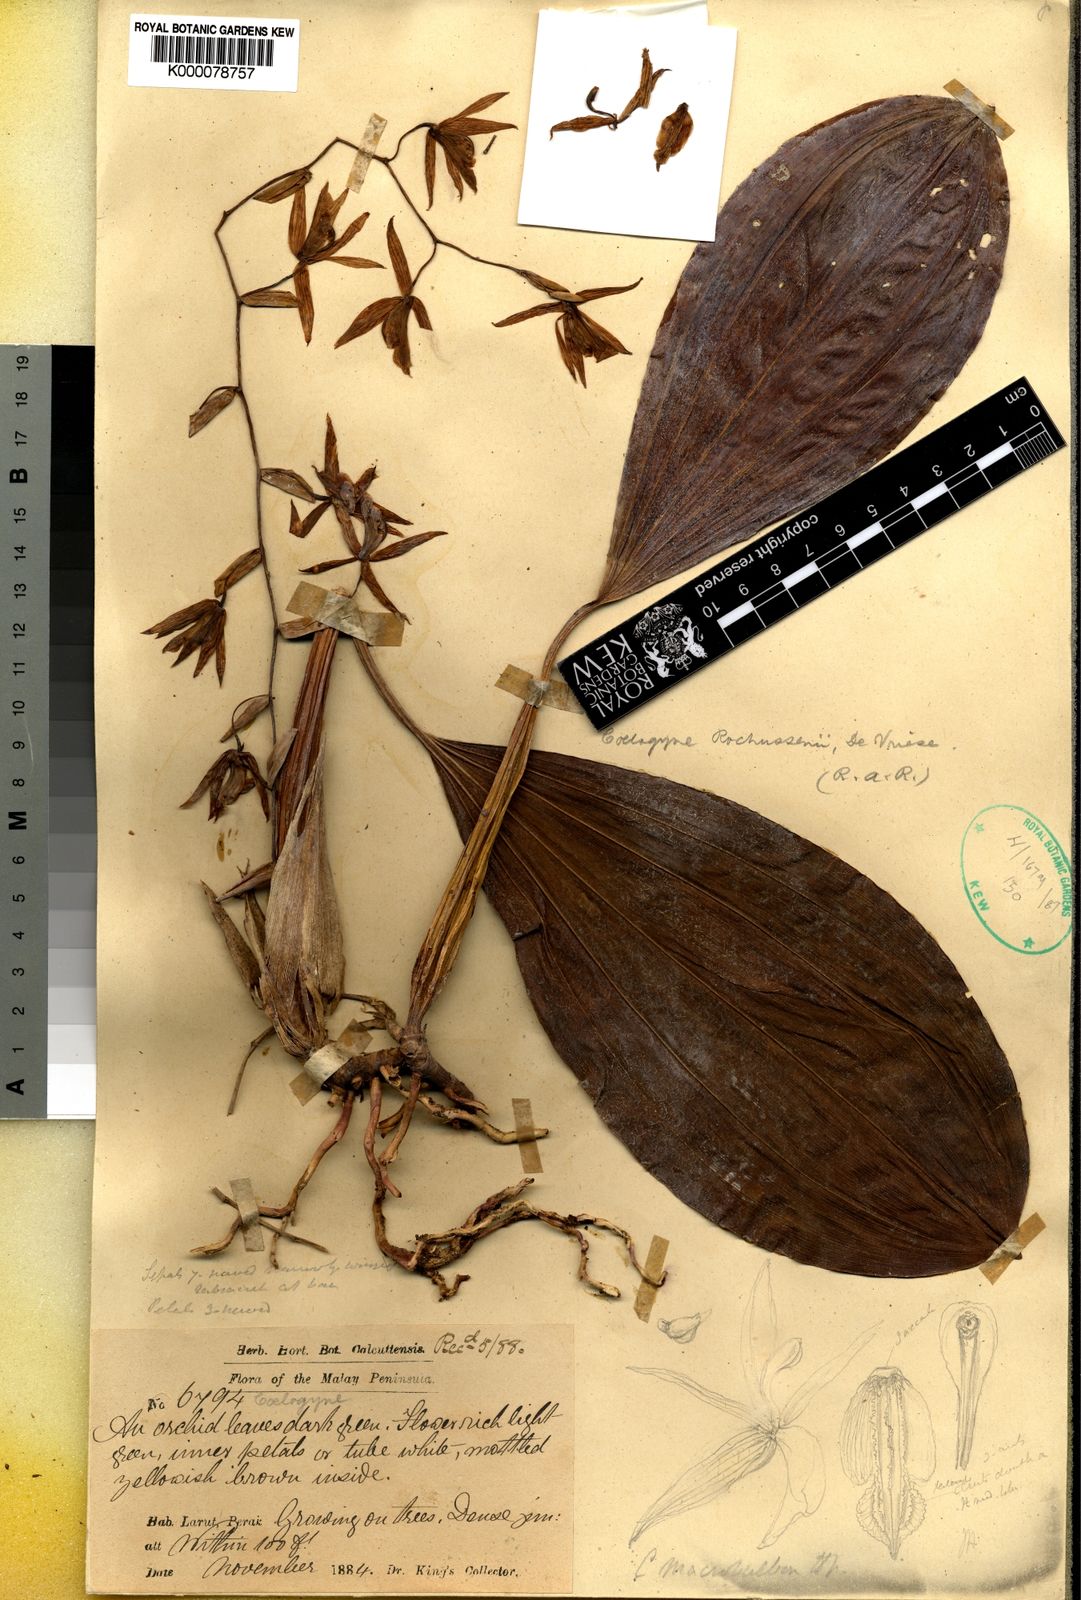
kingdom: Plantae
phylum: Tracheophyta
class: Liliopsida
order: Asparagales
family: Orchidaceae
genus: Coelogyne
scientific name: Coelogyne rochussenii
